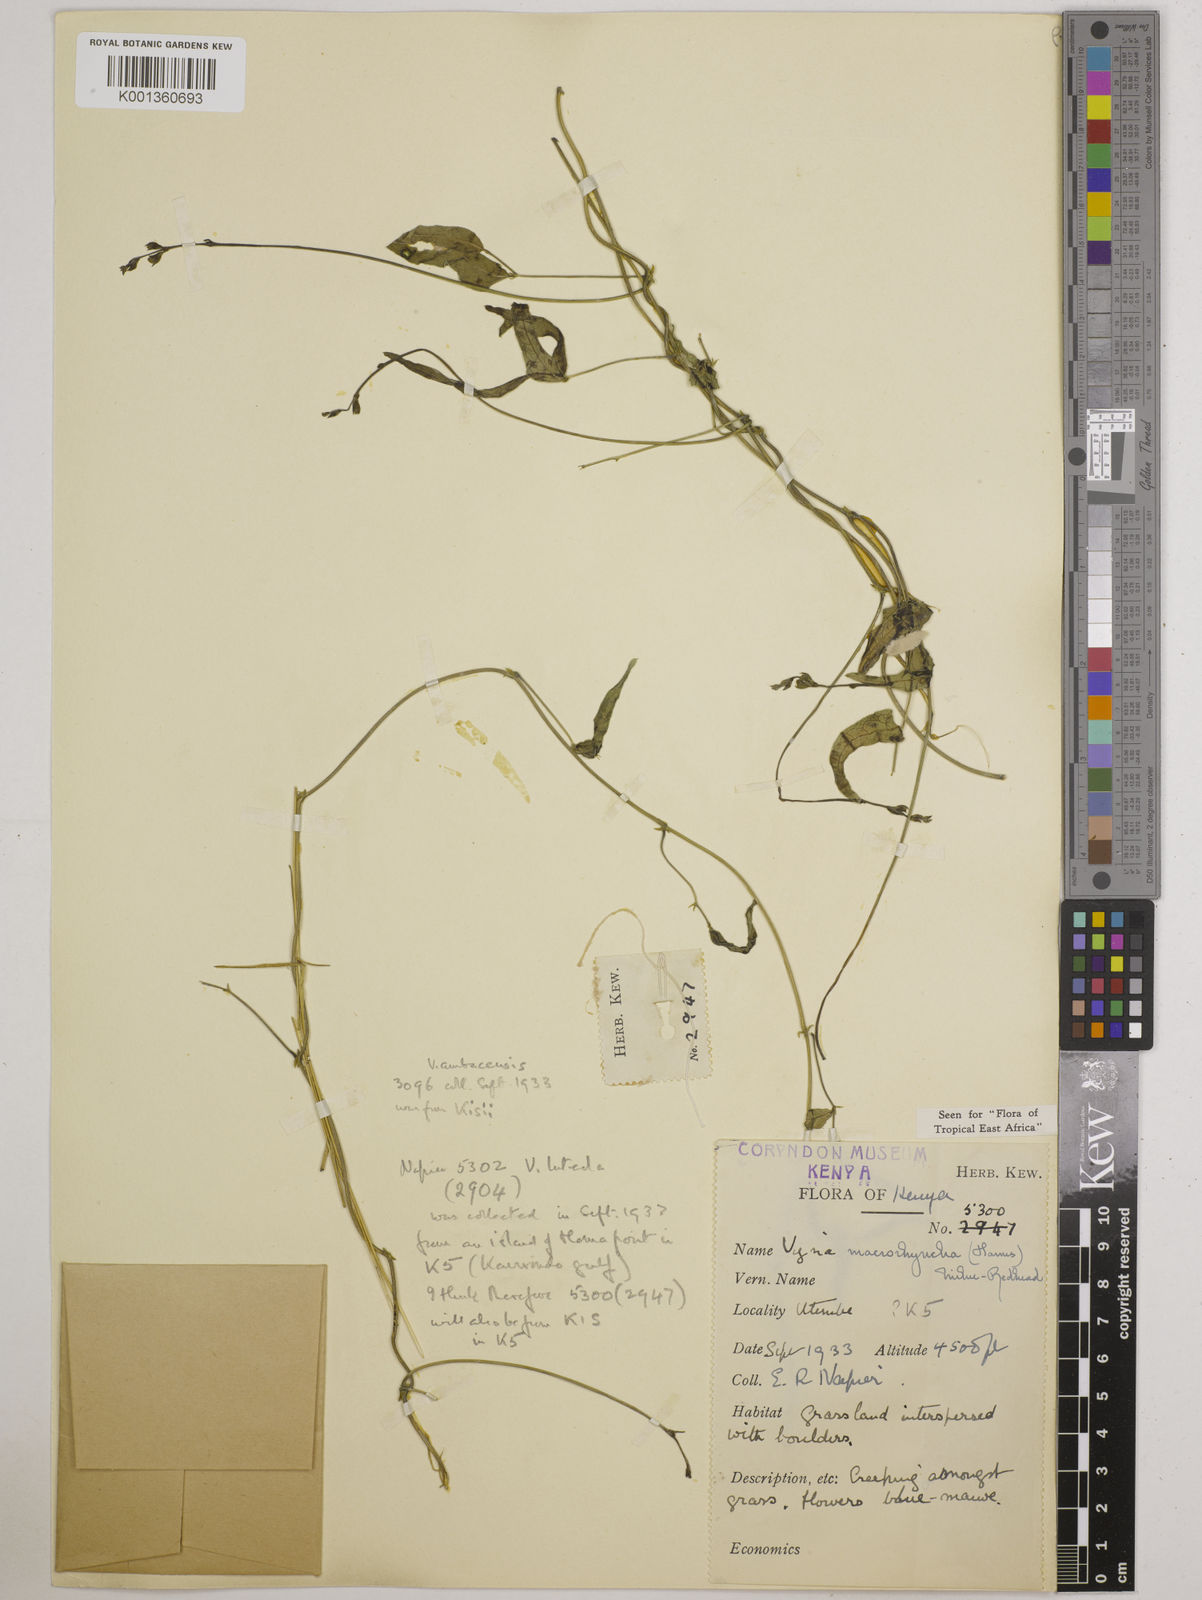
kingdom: Plantae
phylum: Tracheophyta
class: Magnoliopsida
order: Fabales
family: Fabaceae
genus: Wajira
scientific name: Wajira grahamiana
